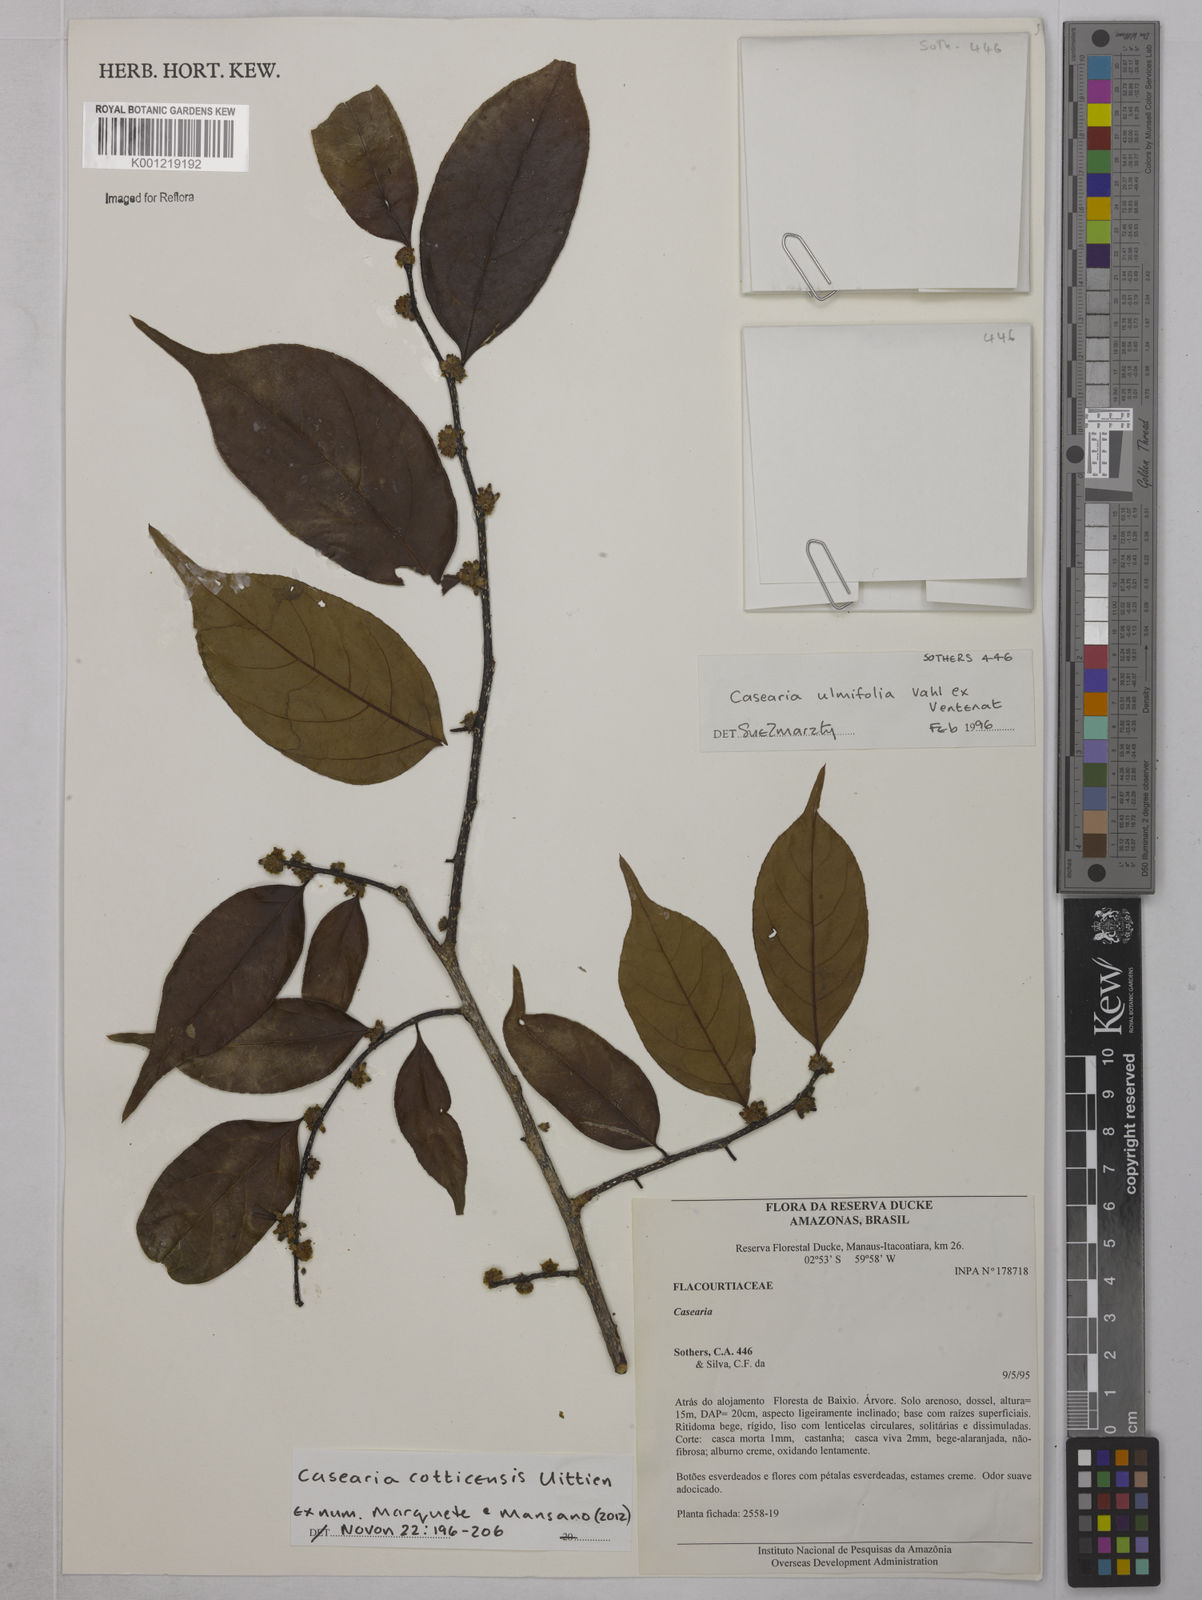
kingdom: Plantae
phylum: Tracheophyta
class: Magnoliopsida
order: Malpighiales
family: Salicaceae
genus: Casearia
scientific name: Casearia cotticensis
